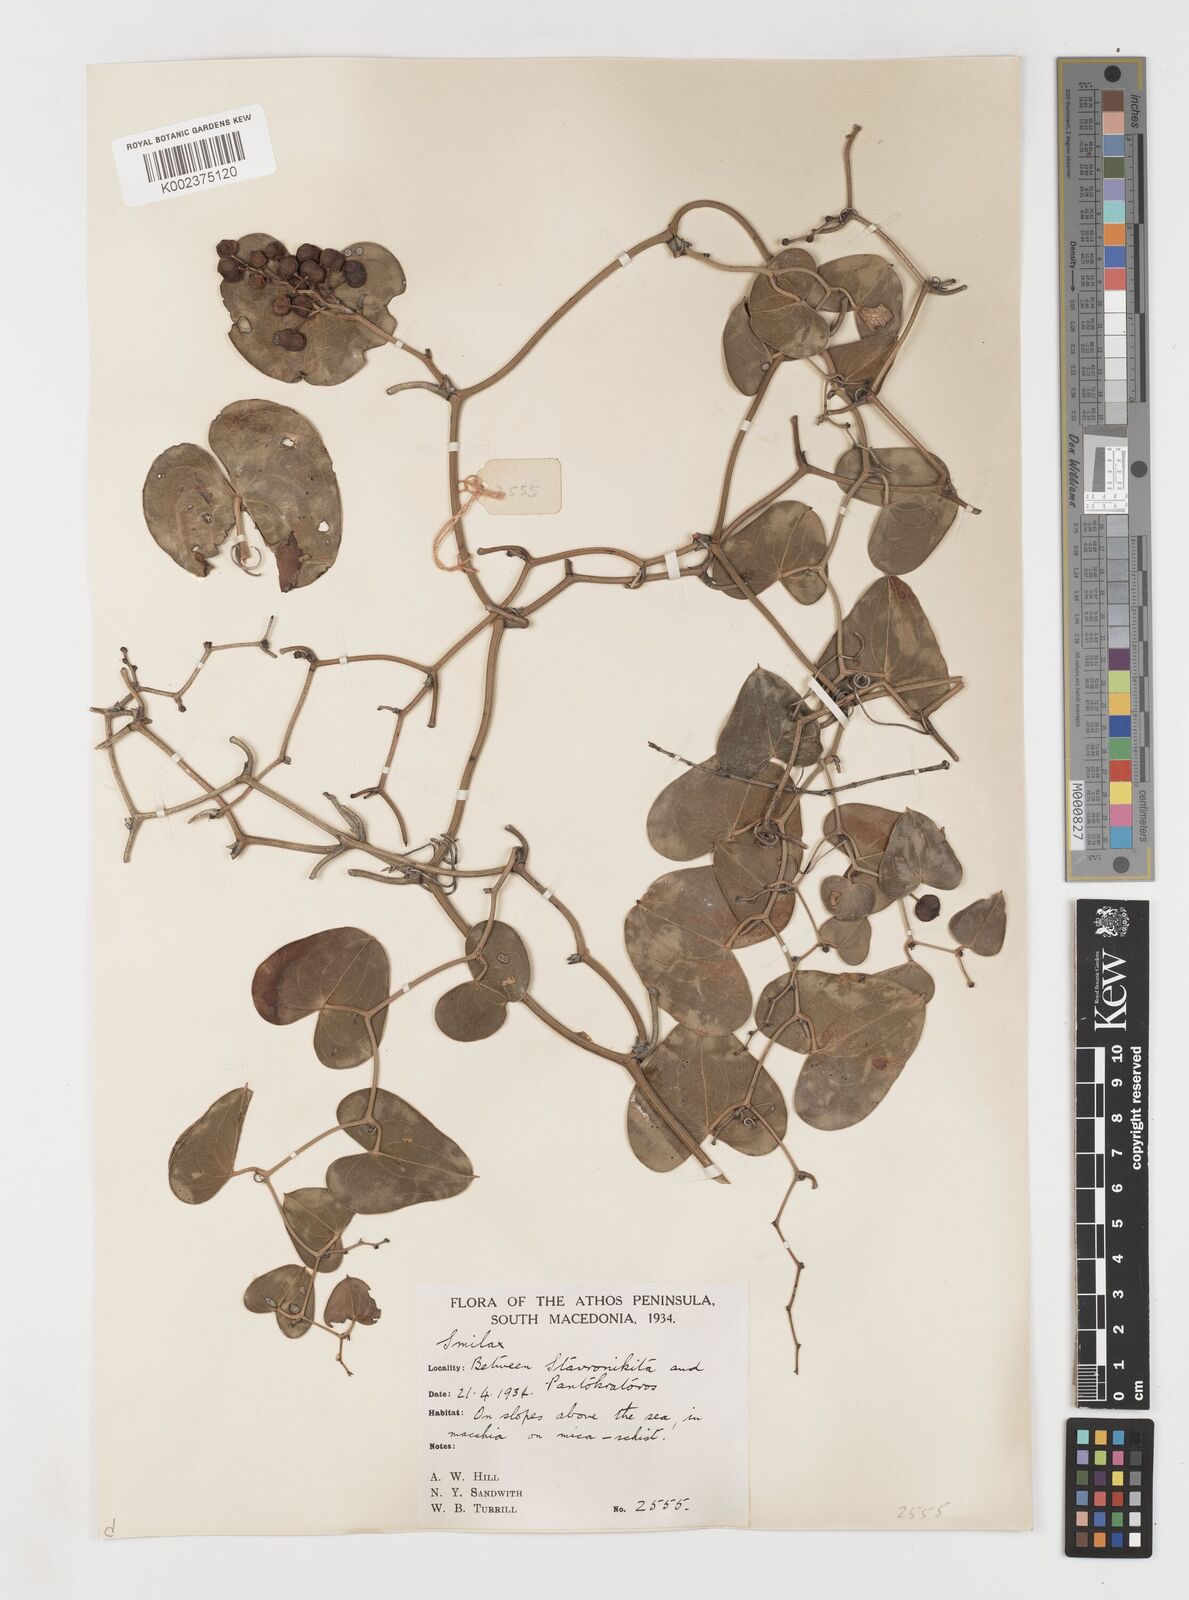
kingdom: Plantae
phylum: Tracheophyta
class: Liliopsida
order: Liliales
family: Smilacaceae
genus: Smilax
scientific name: Smilax aspera
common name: Common smilax
